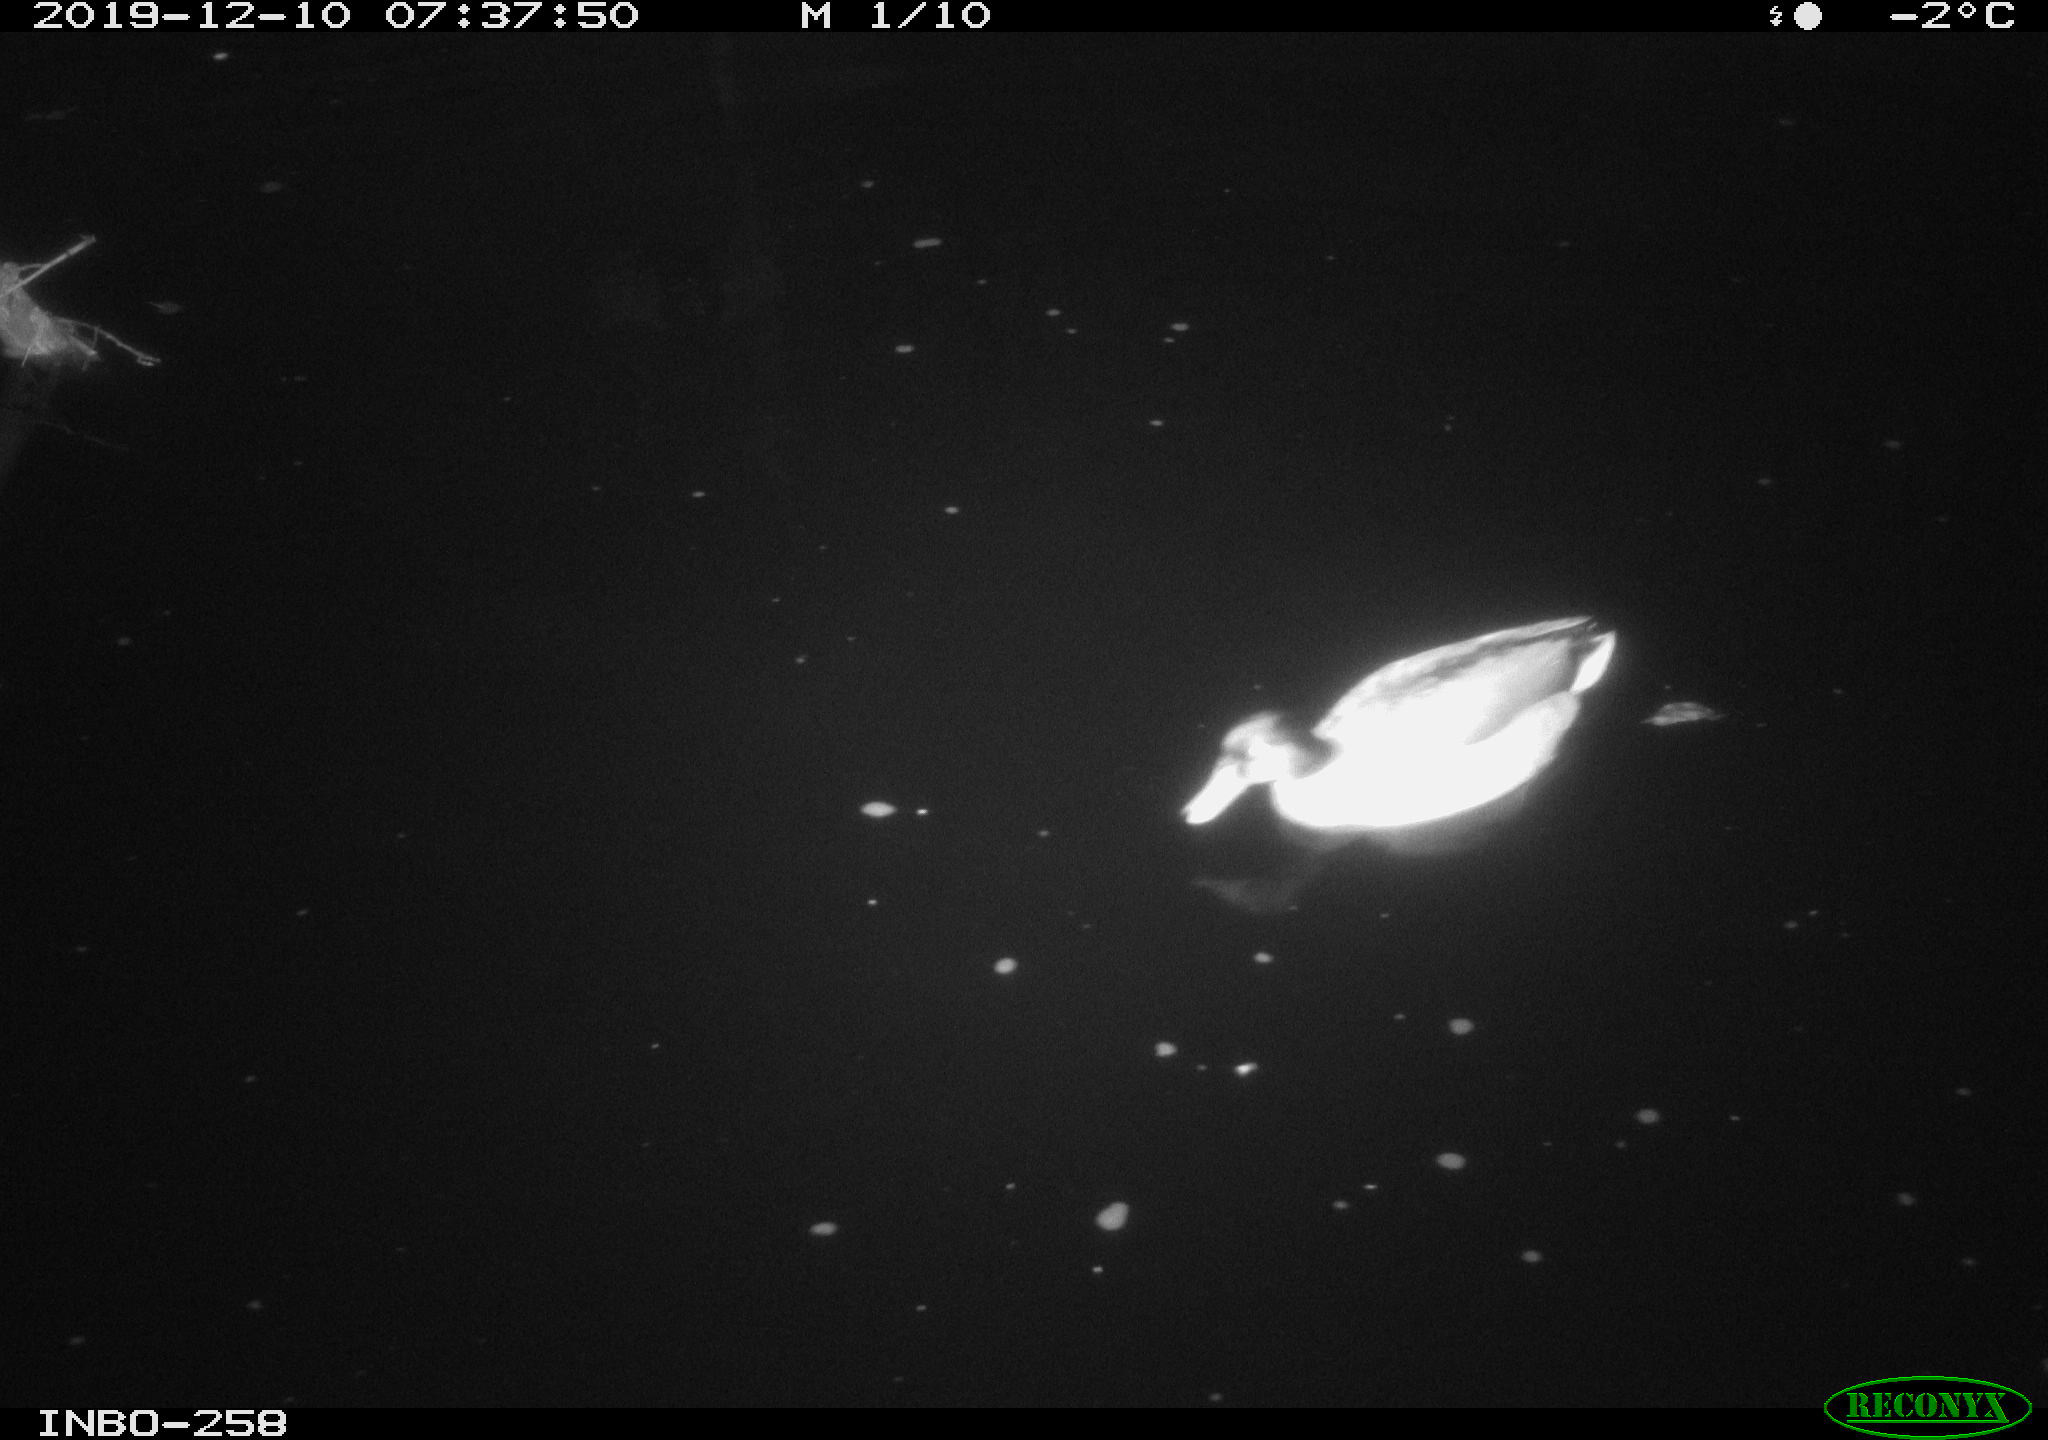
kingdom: Animalia
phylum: Chordata
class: Aves
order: Anseriformes
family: Anatidae
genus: Anas
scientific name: Anas platyrhynchos
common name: Mallard
